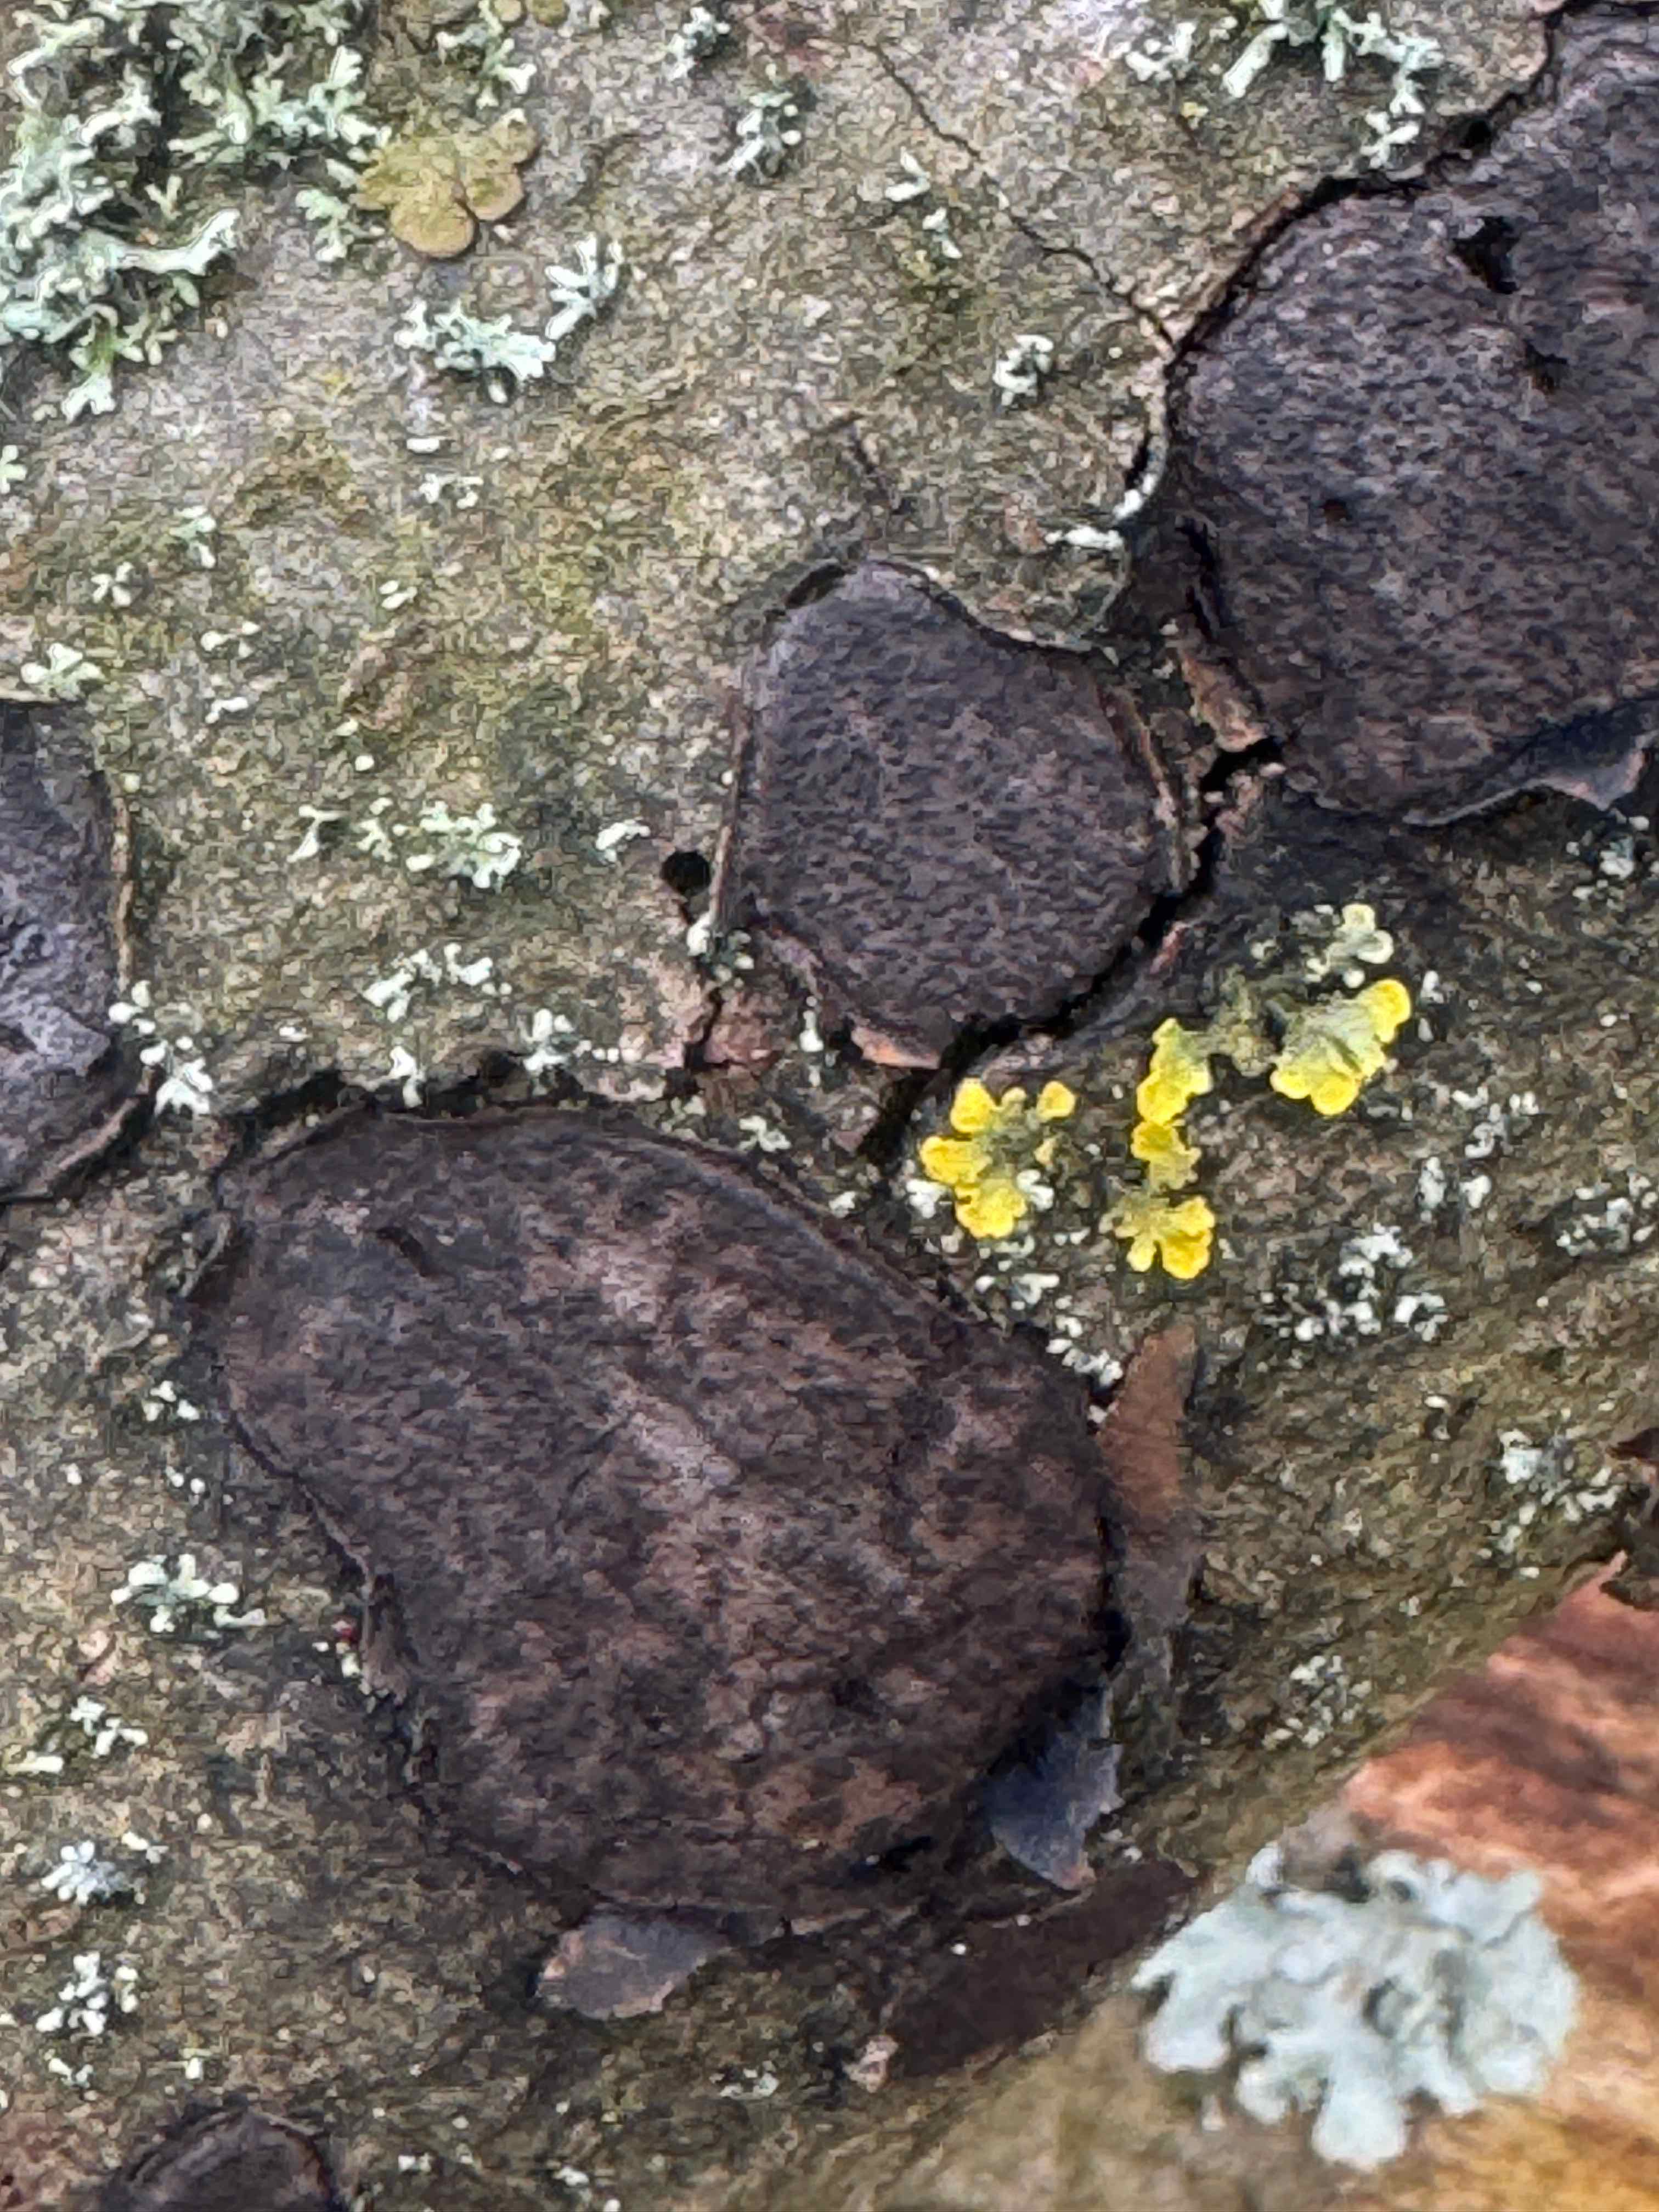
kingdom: Fungi
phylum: Ascomycota
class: Sordariomycetes
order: Xylariales
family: Graphostromataceae
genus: Biscogniauxia
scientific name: Biscogniauxia nummularia
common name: bøge-kulskive
